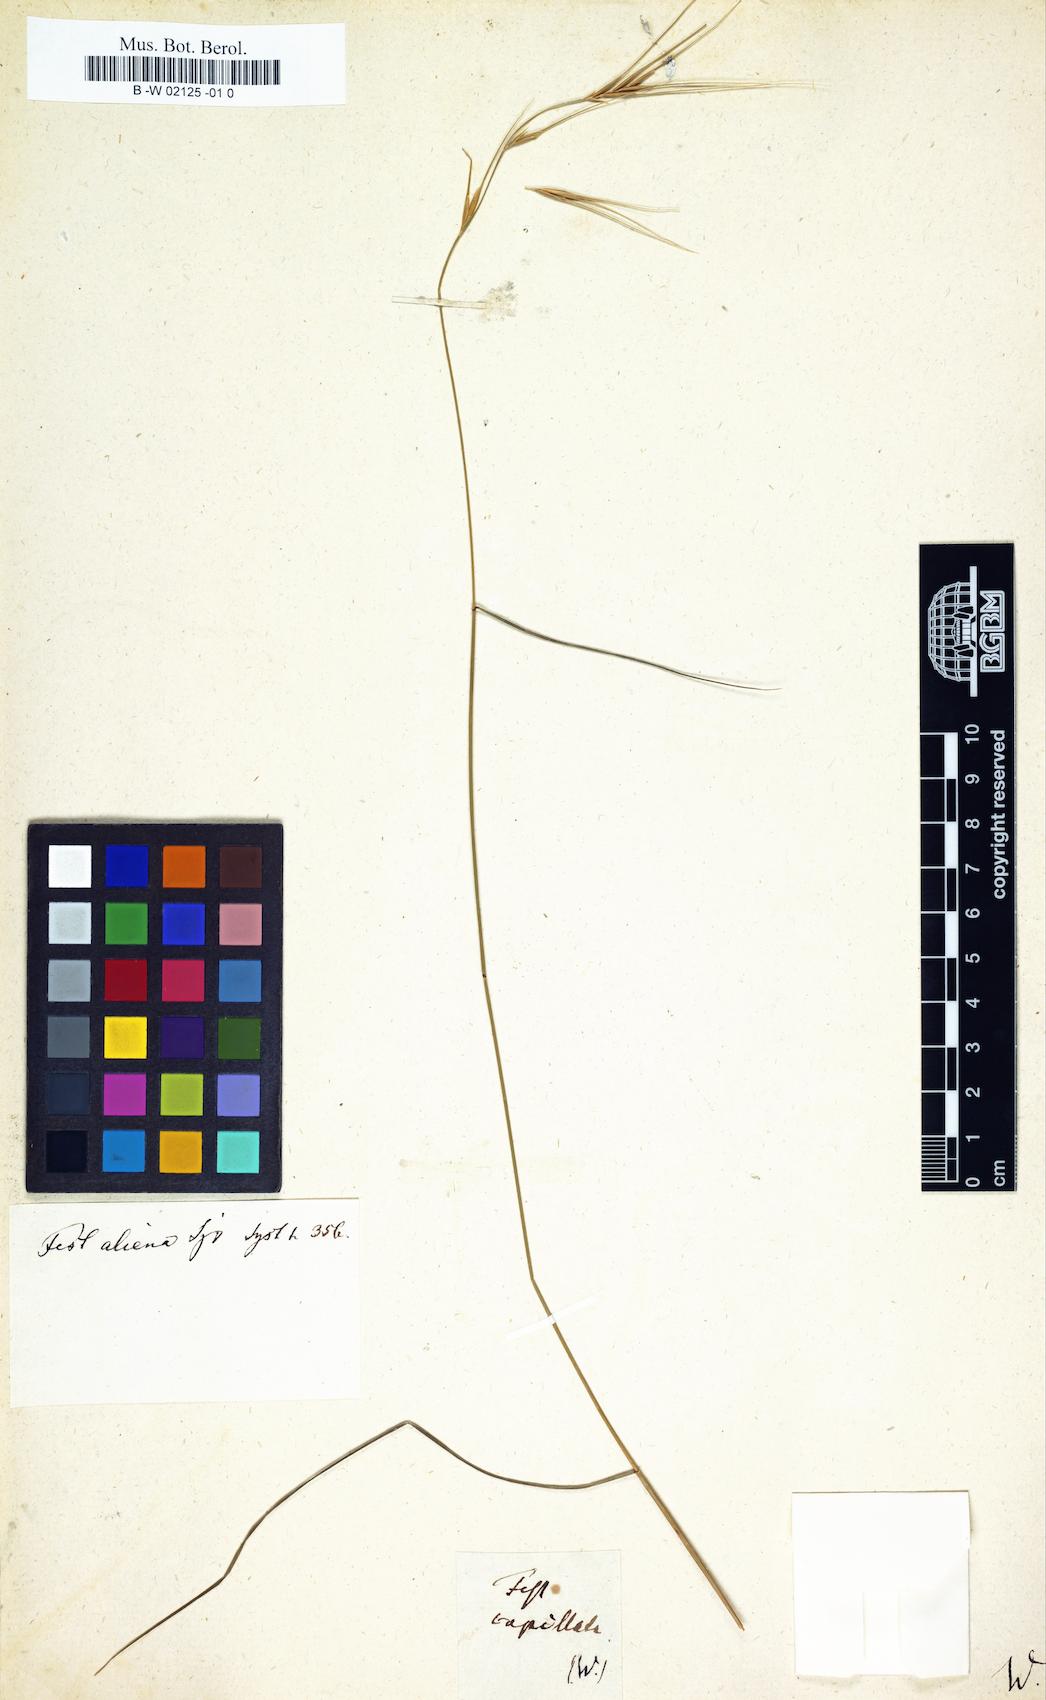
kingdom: Plantae
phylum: Tracheophyta
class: Liliopsida
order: Poales
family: Poaceae
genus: Festuca
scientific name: Festuca capillata
